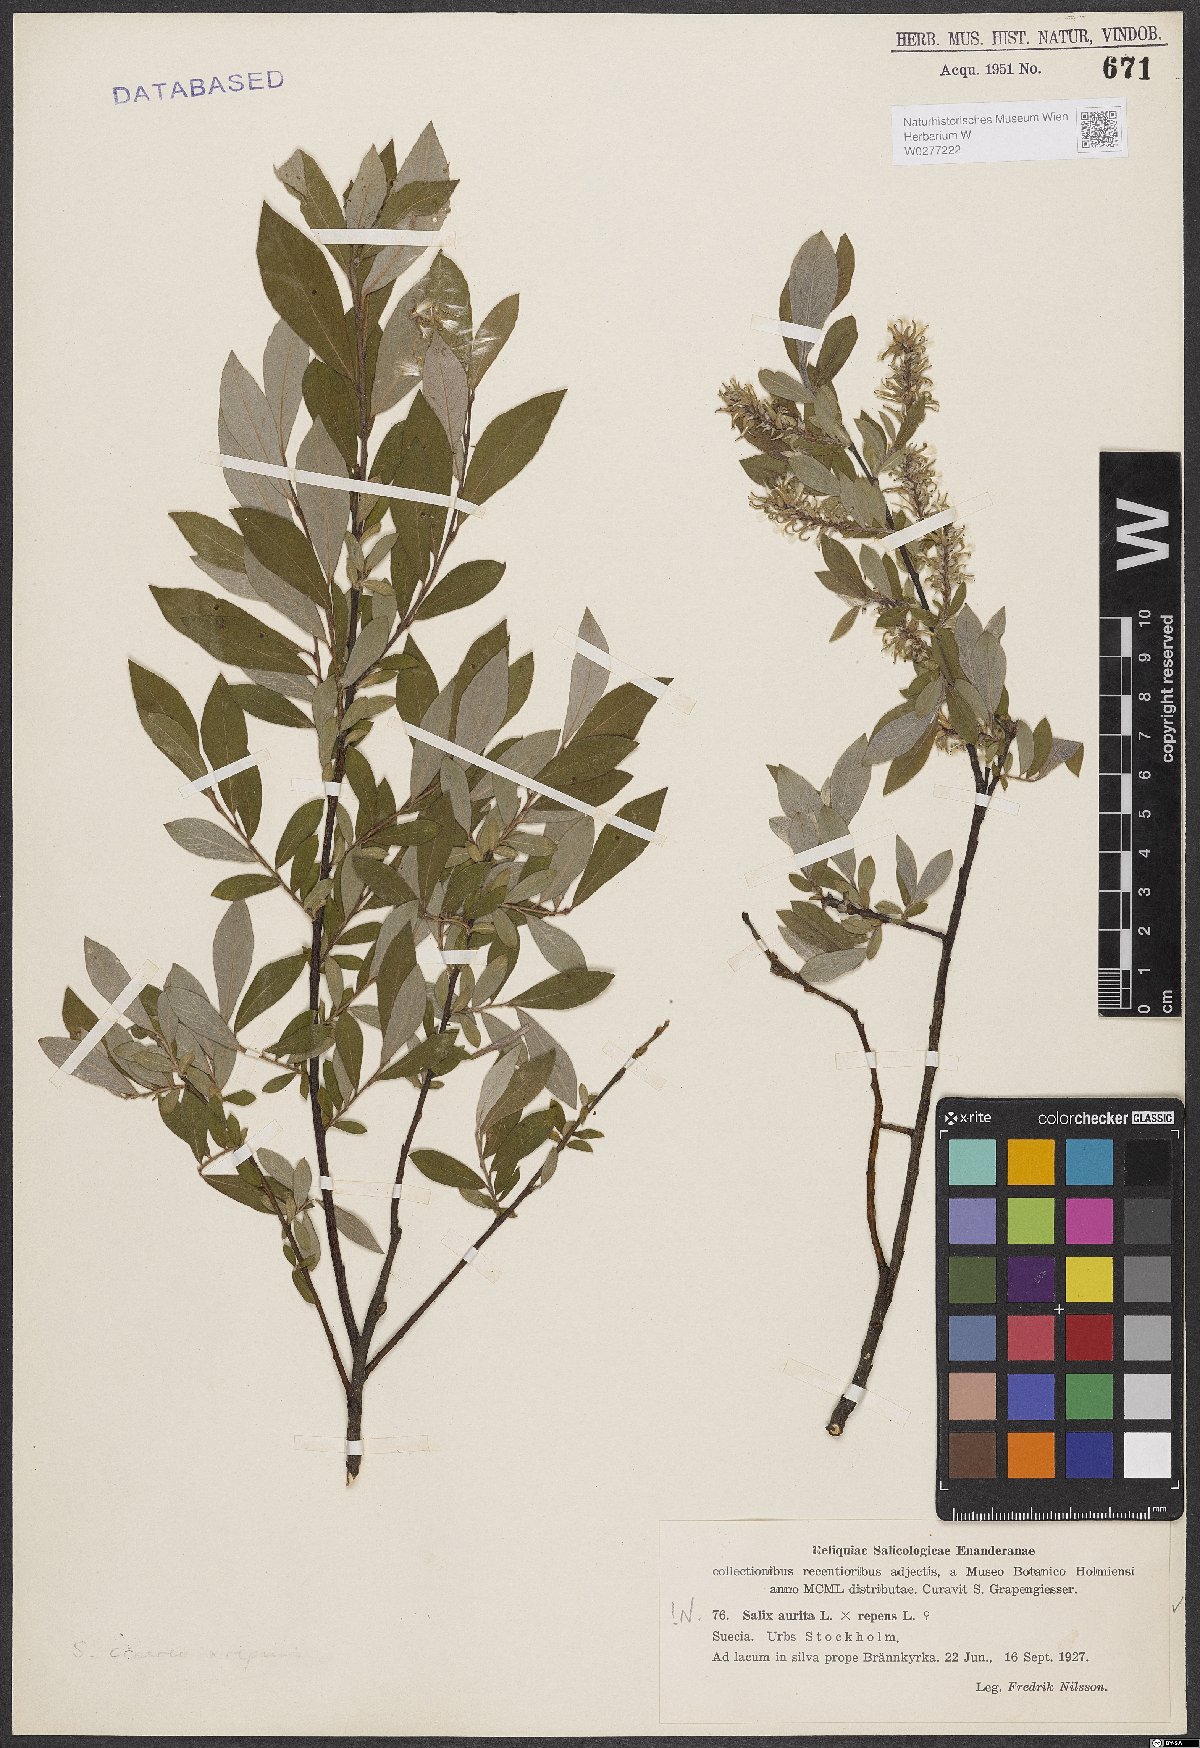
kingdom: Plantae
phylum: Tracheophyta
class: Magnoliopsida
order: Malpighiales
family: Salicaceae
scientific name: Salicaceae
